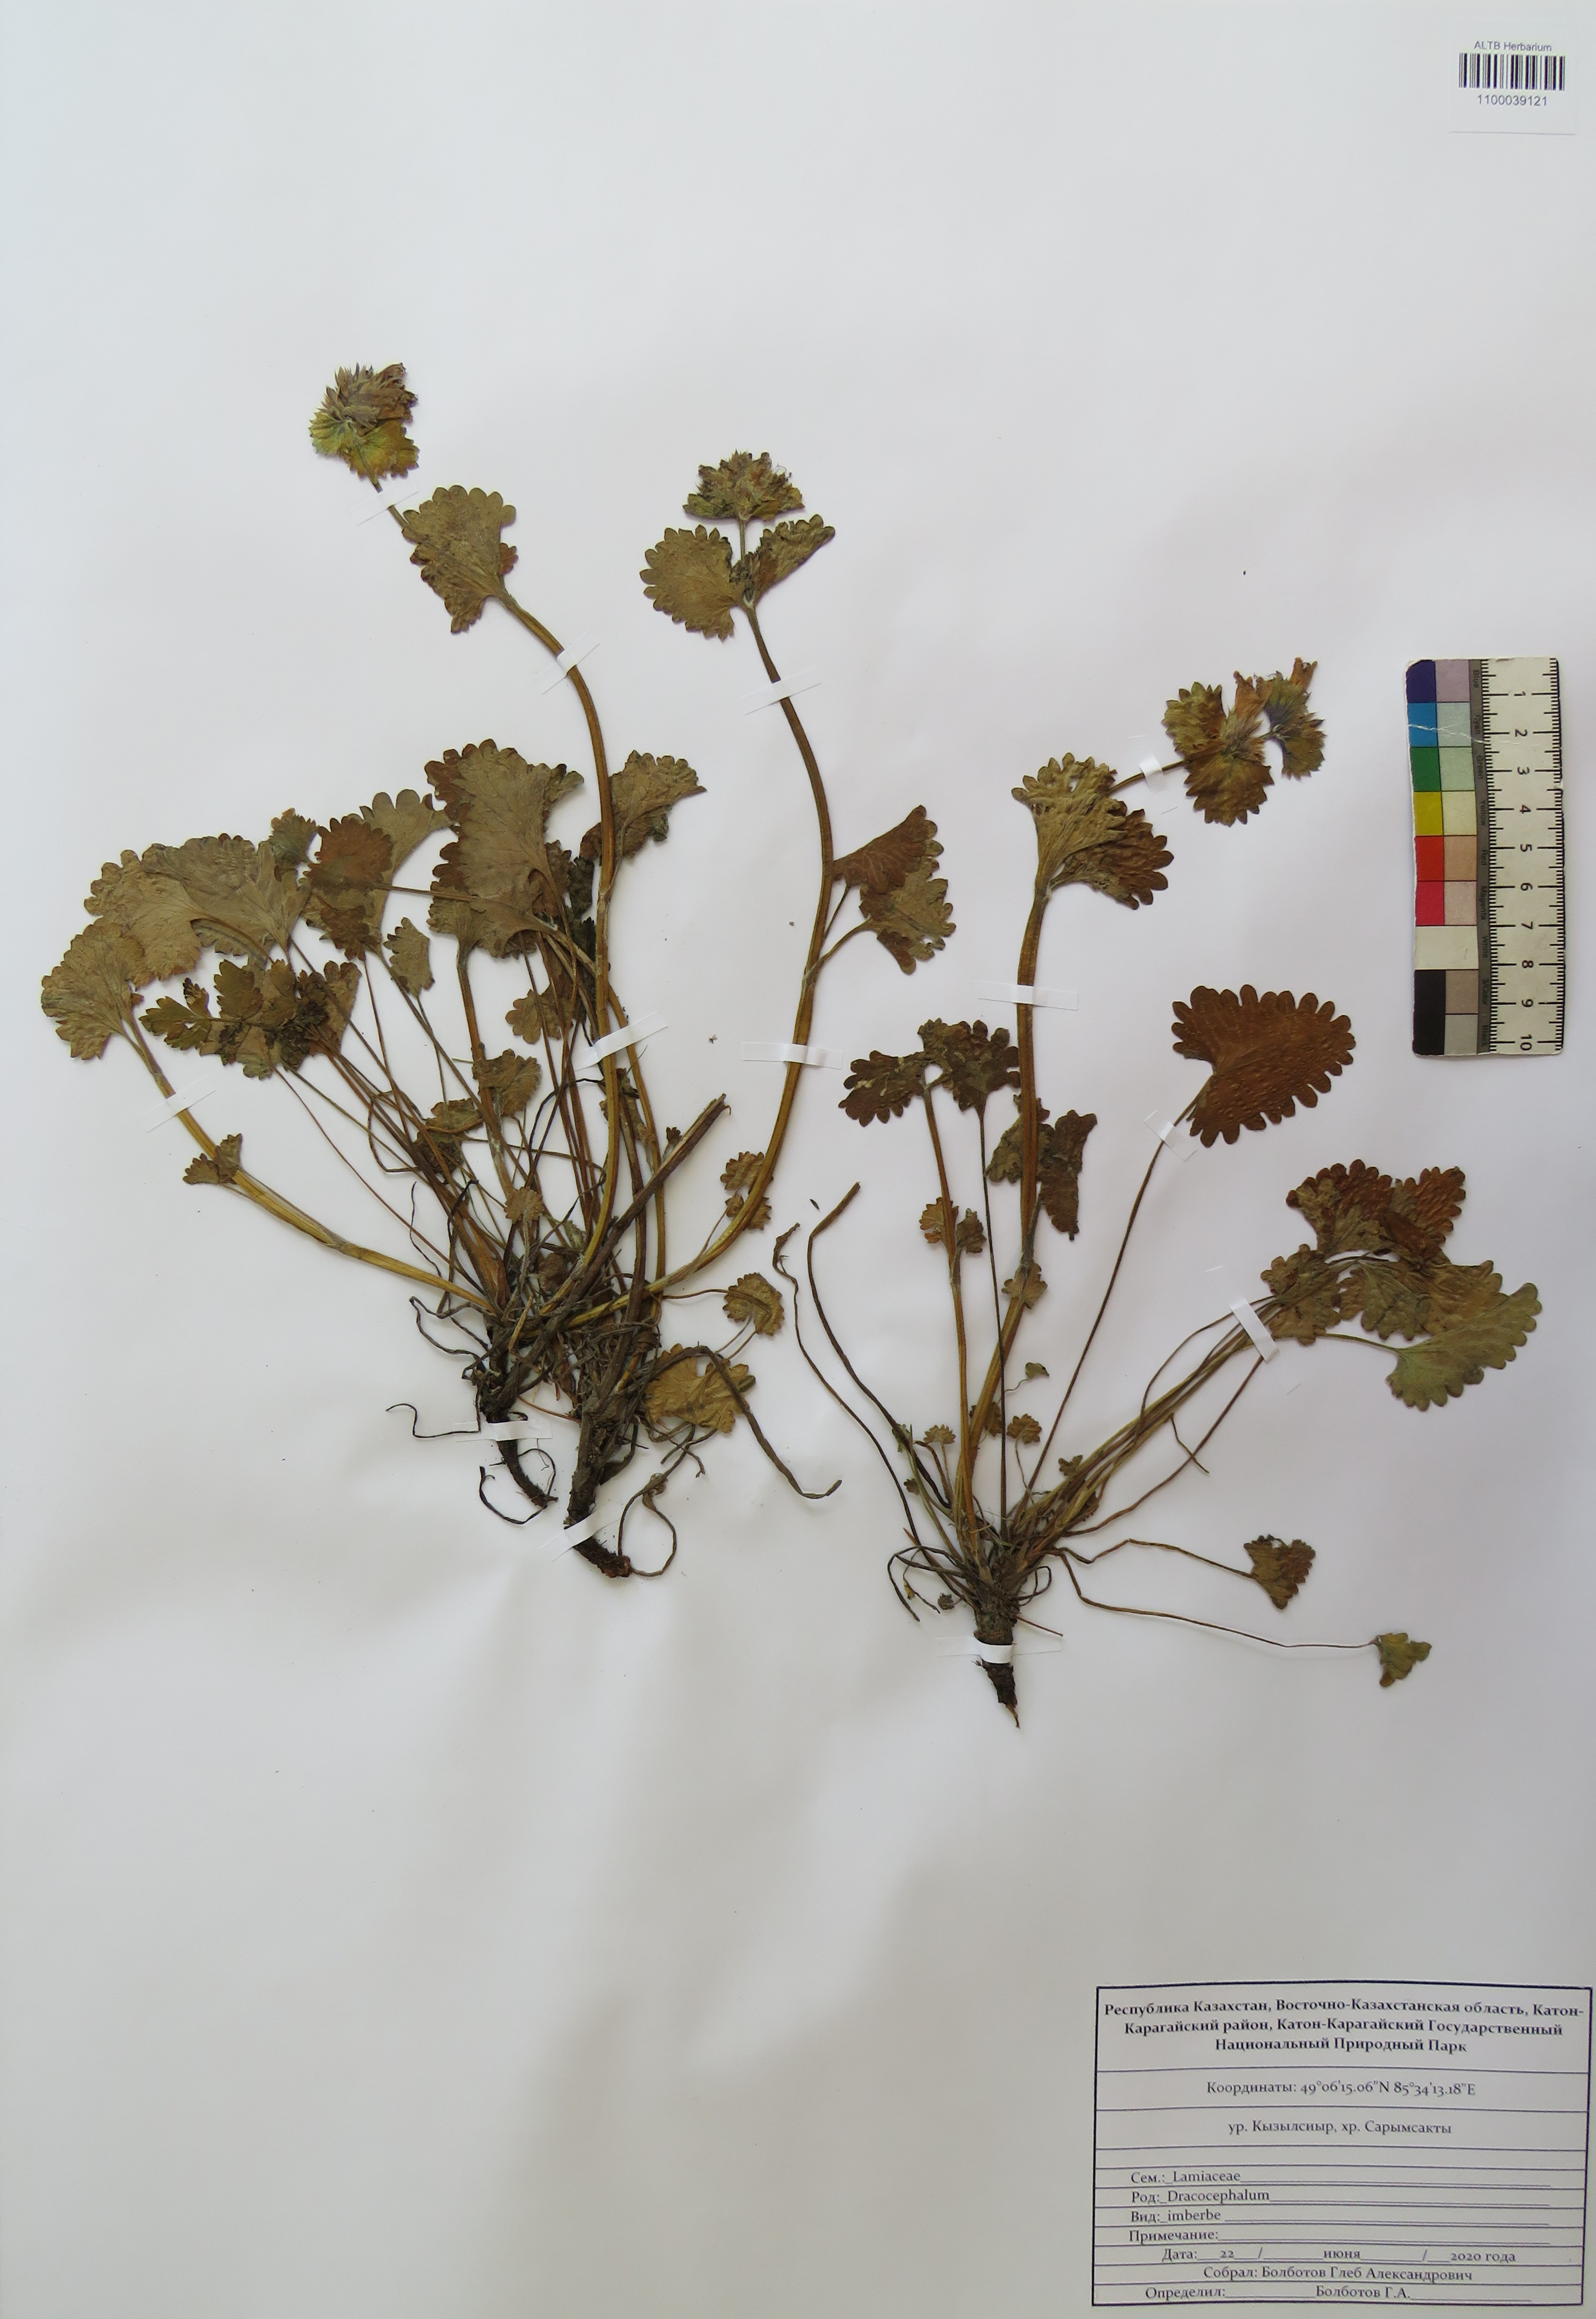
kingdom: Plantae
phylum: Tracheophyta
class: Magnoliopsida
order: Lamiales
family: Lamiaceae
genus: Dracocephalum
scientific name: Dracocephalum imberbe
